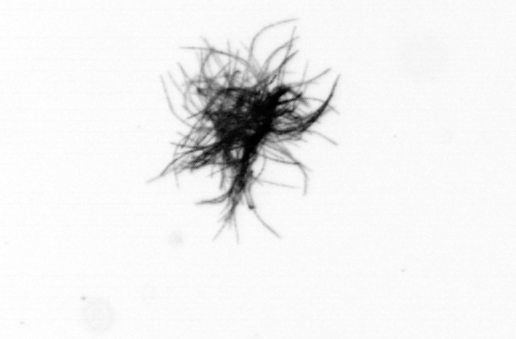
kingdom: Bacteria
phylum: Cyanobacteria
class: Cyanobacteriia
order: Cyanobacteriales
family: Microcoleaceae
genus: Trichodesmium
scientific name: Trichodesmium
